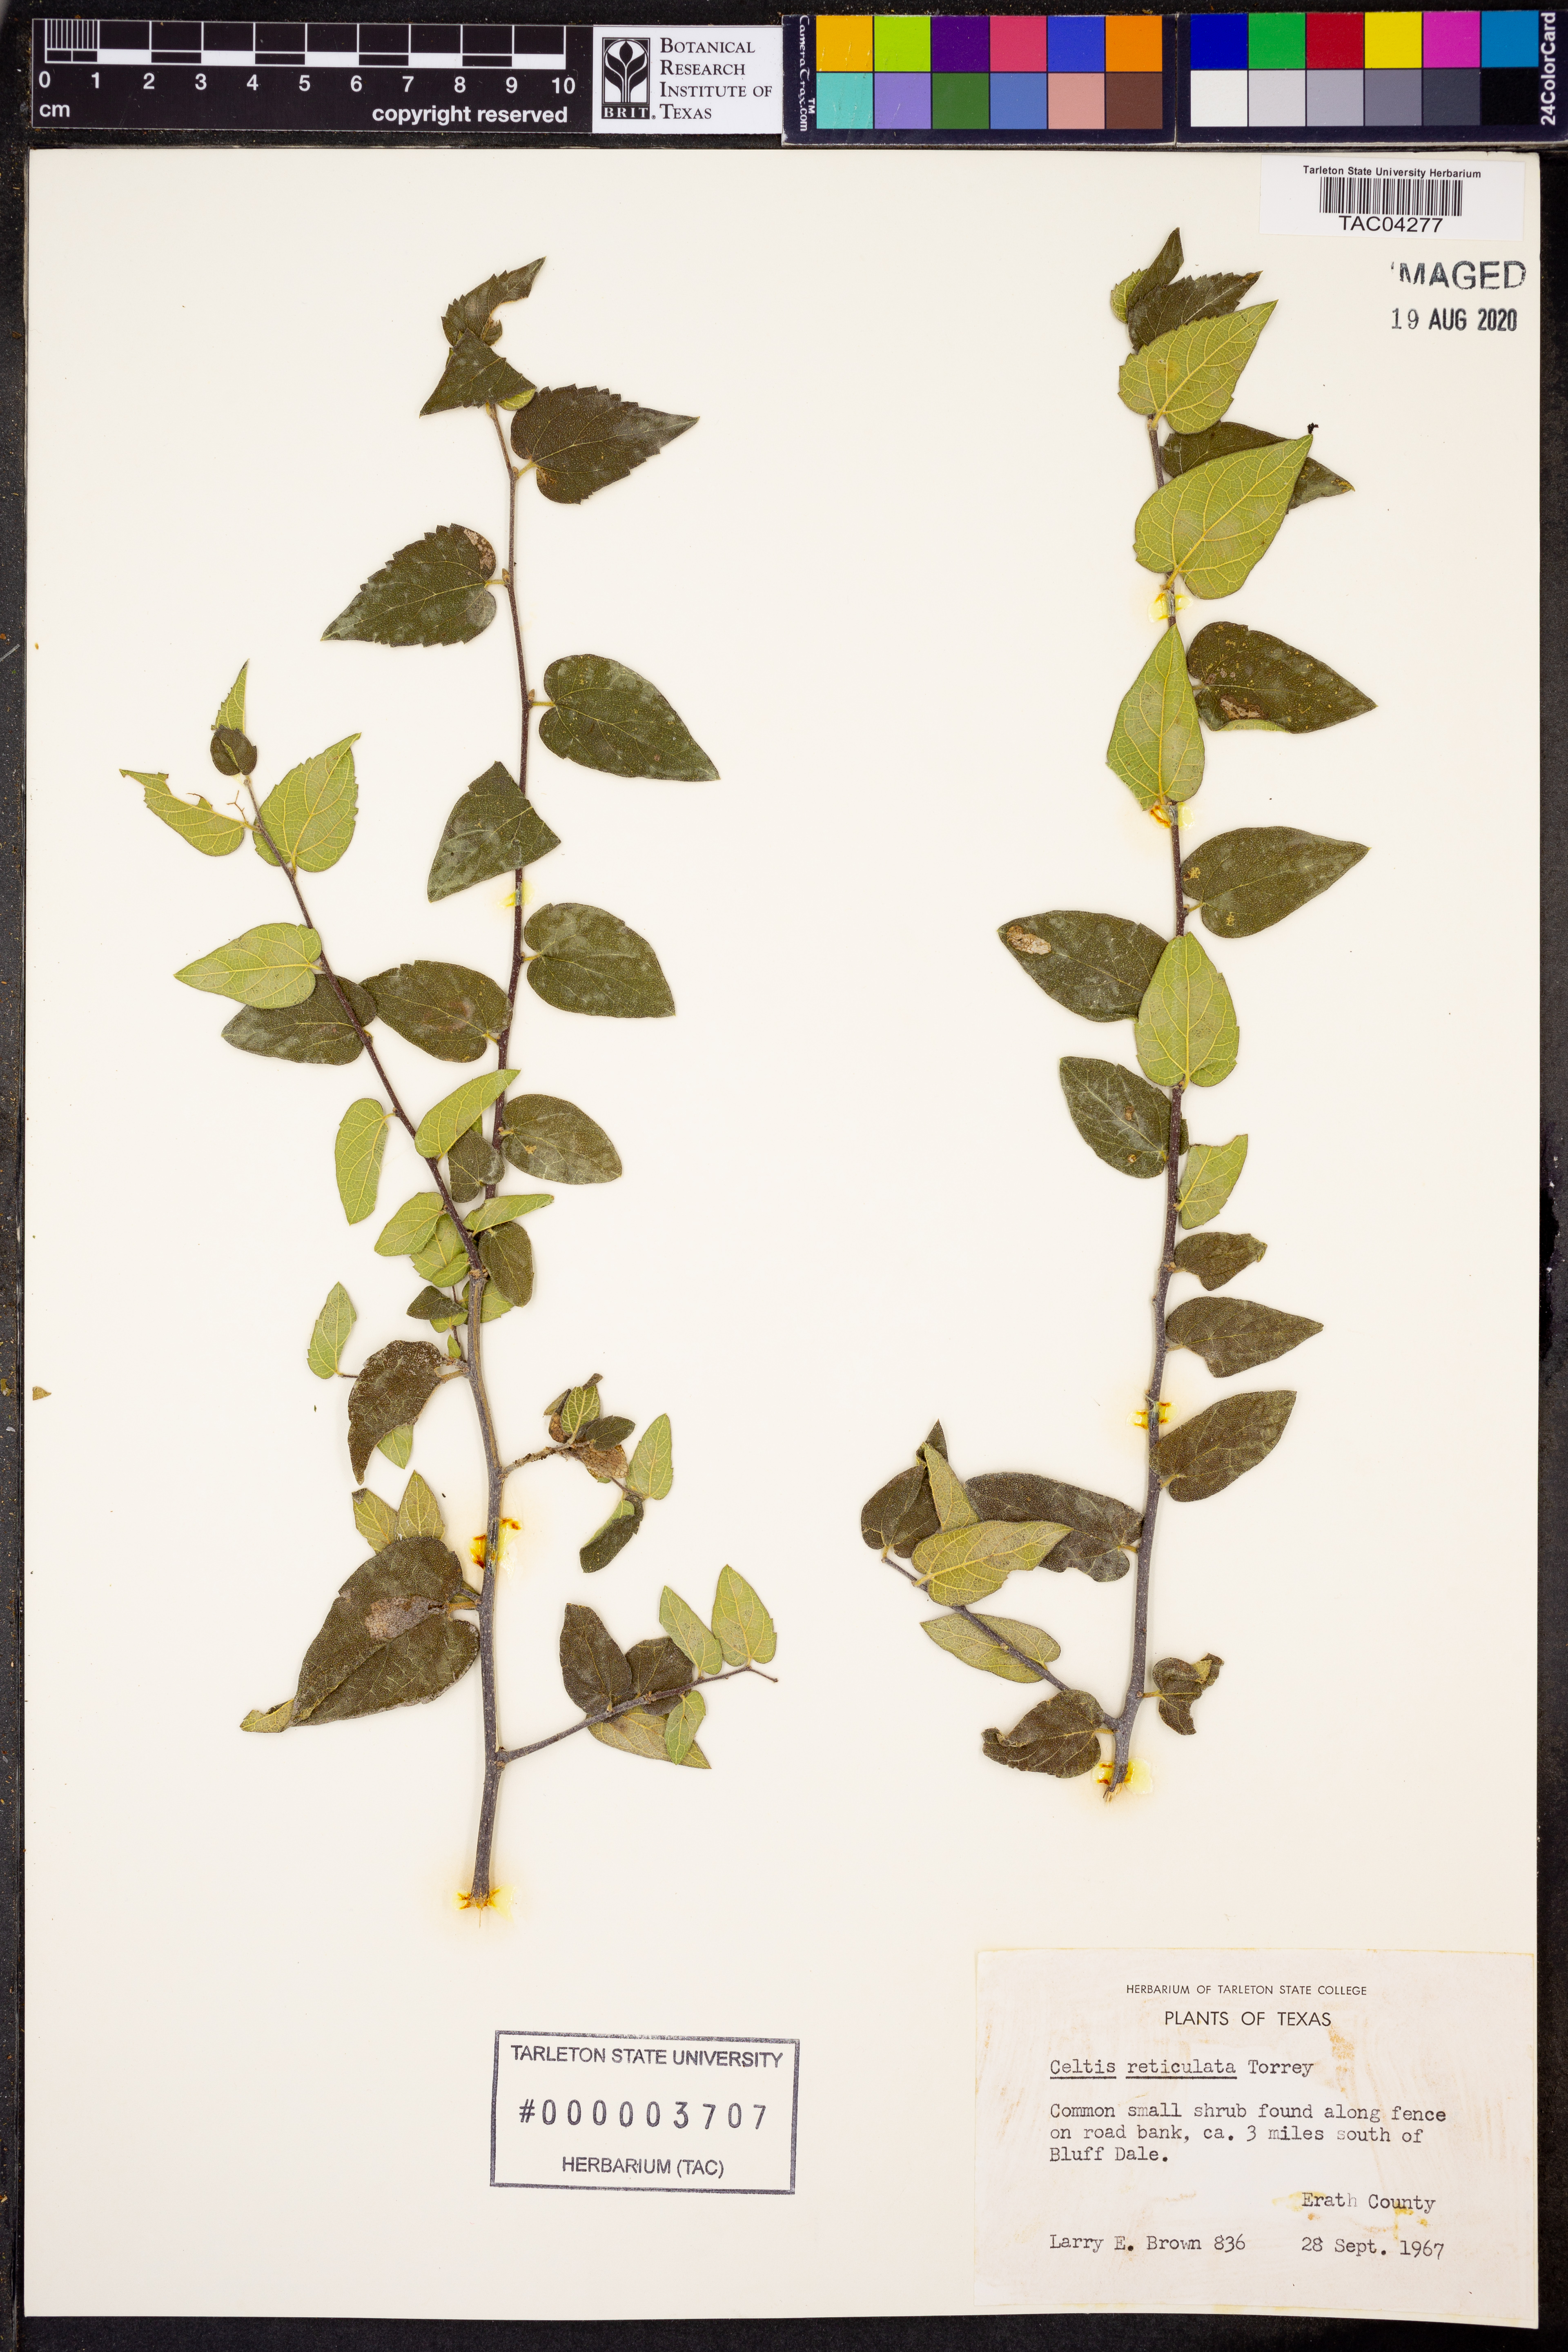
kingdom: Plantae
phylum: Tracheophyta
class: Magnoliopsida
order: Rosales
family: Cannabaceae
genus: Celtis
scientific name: Celtis reticulata
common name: Netleaf hackberry
